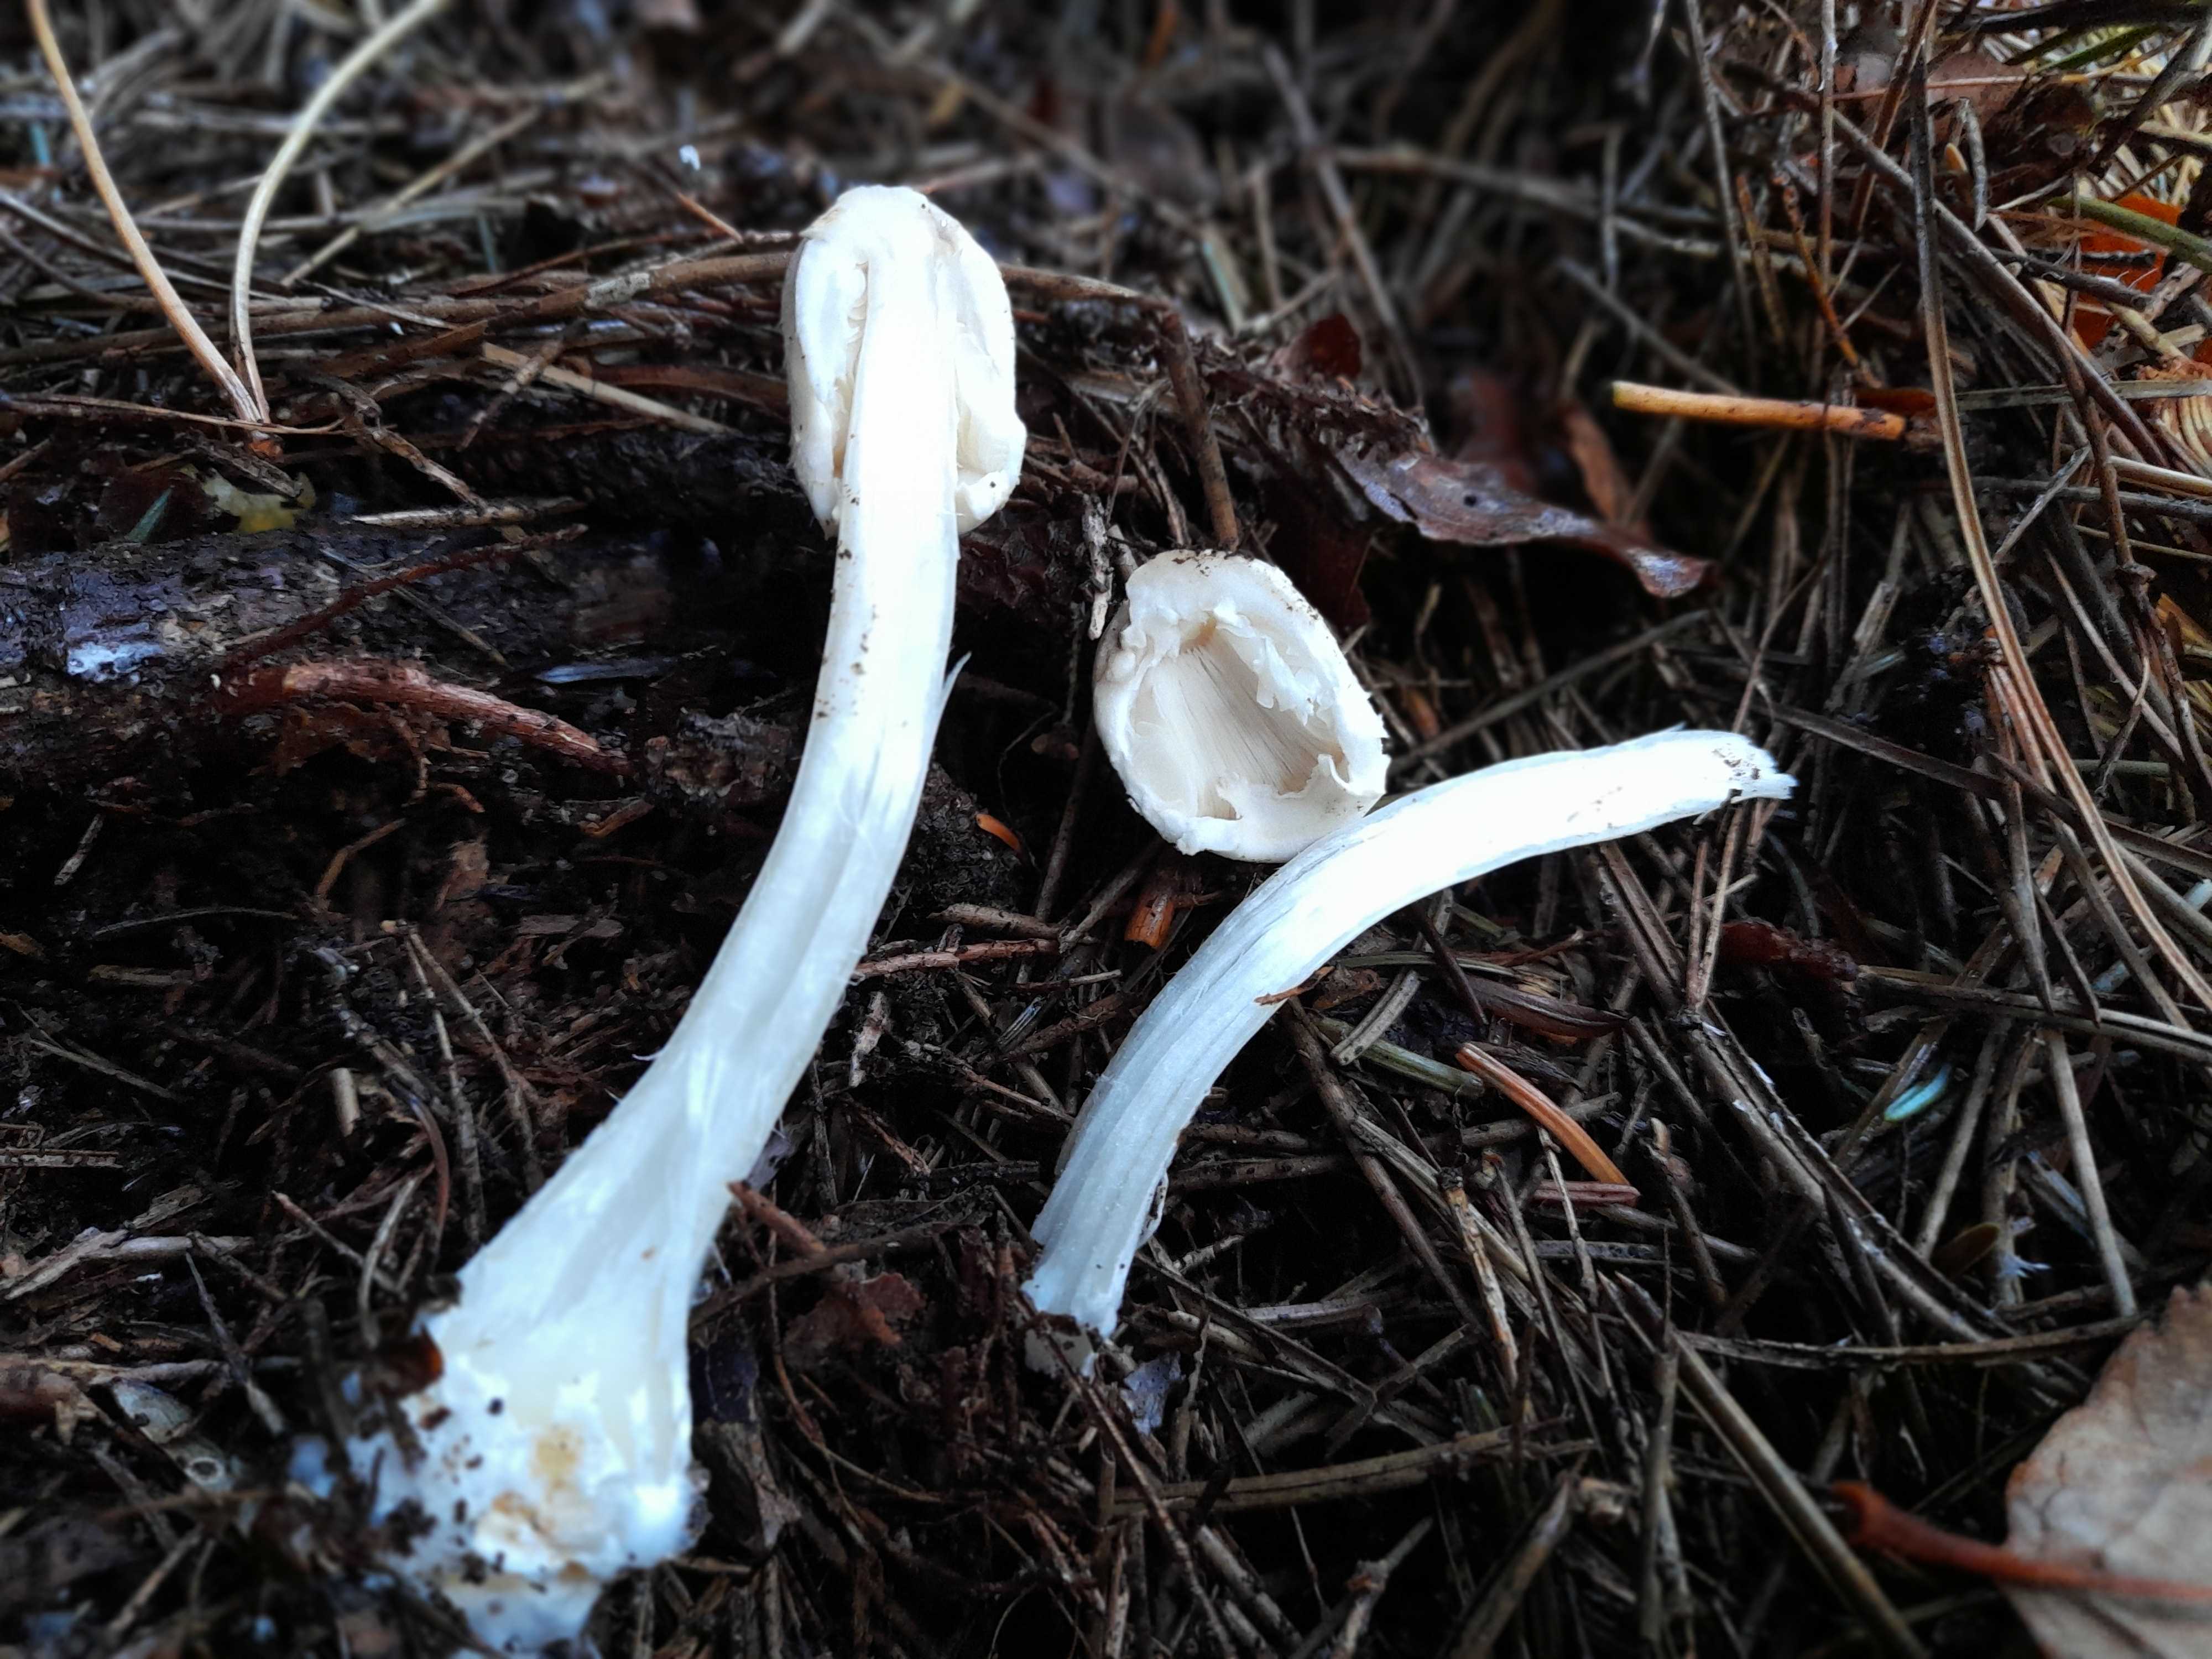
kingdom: Fungi
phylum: Basidiomycota
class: Agaricomycetes
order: Agaricales
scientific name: Agaricales
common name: champignonordenen
